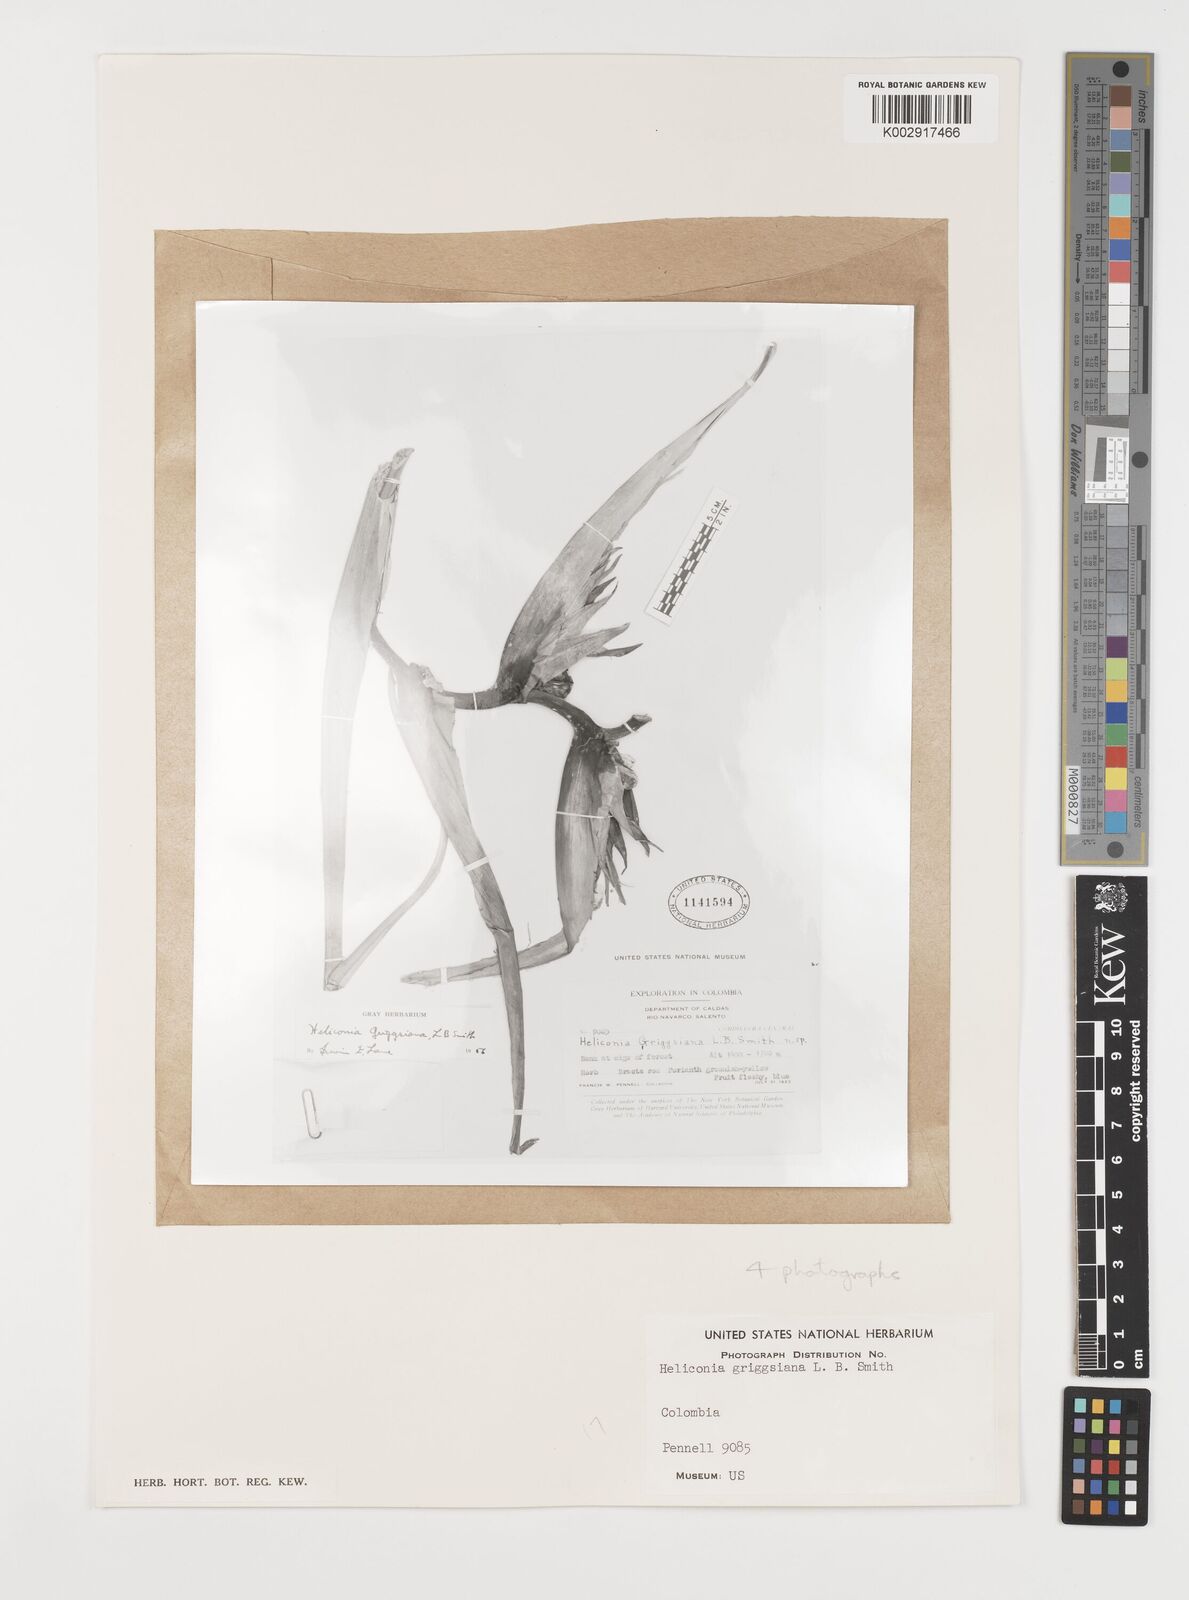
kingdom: Plantae
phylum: Tracheophyta
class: Liliopsida
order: Zingiberales
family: Heliconiaceae
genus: Heliconia
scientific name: Heliconia griggsiana
